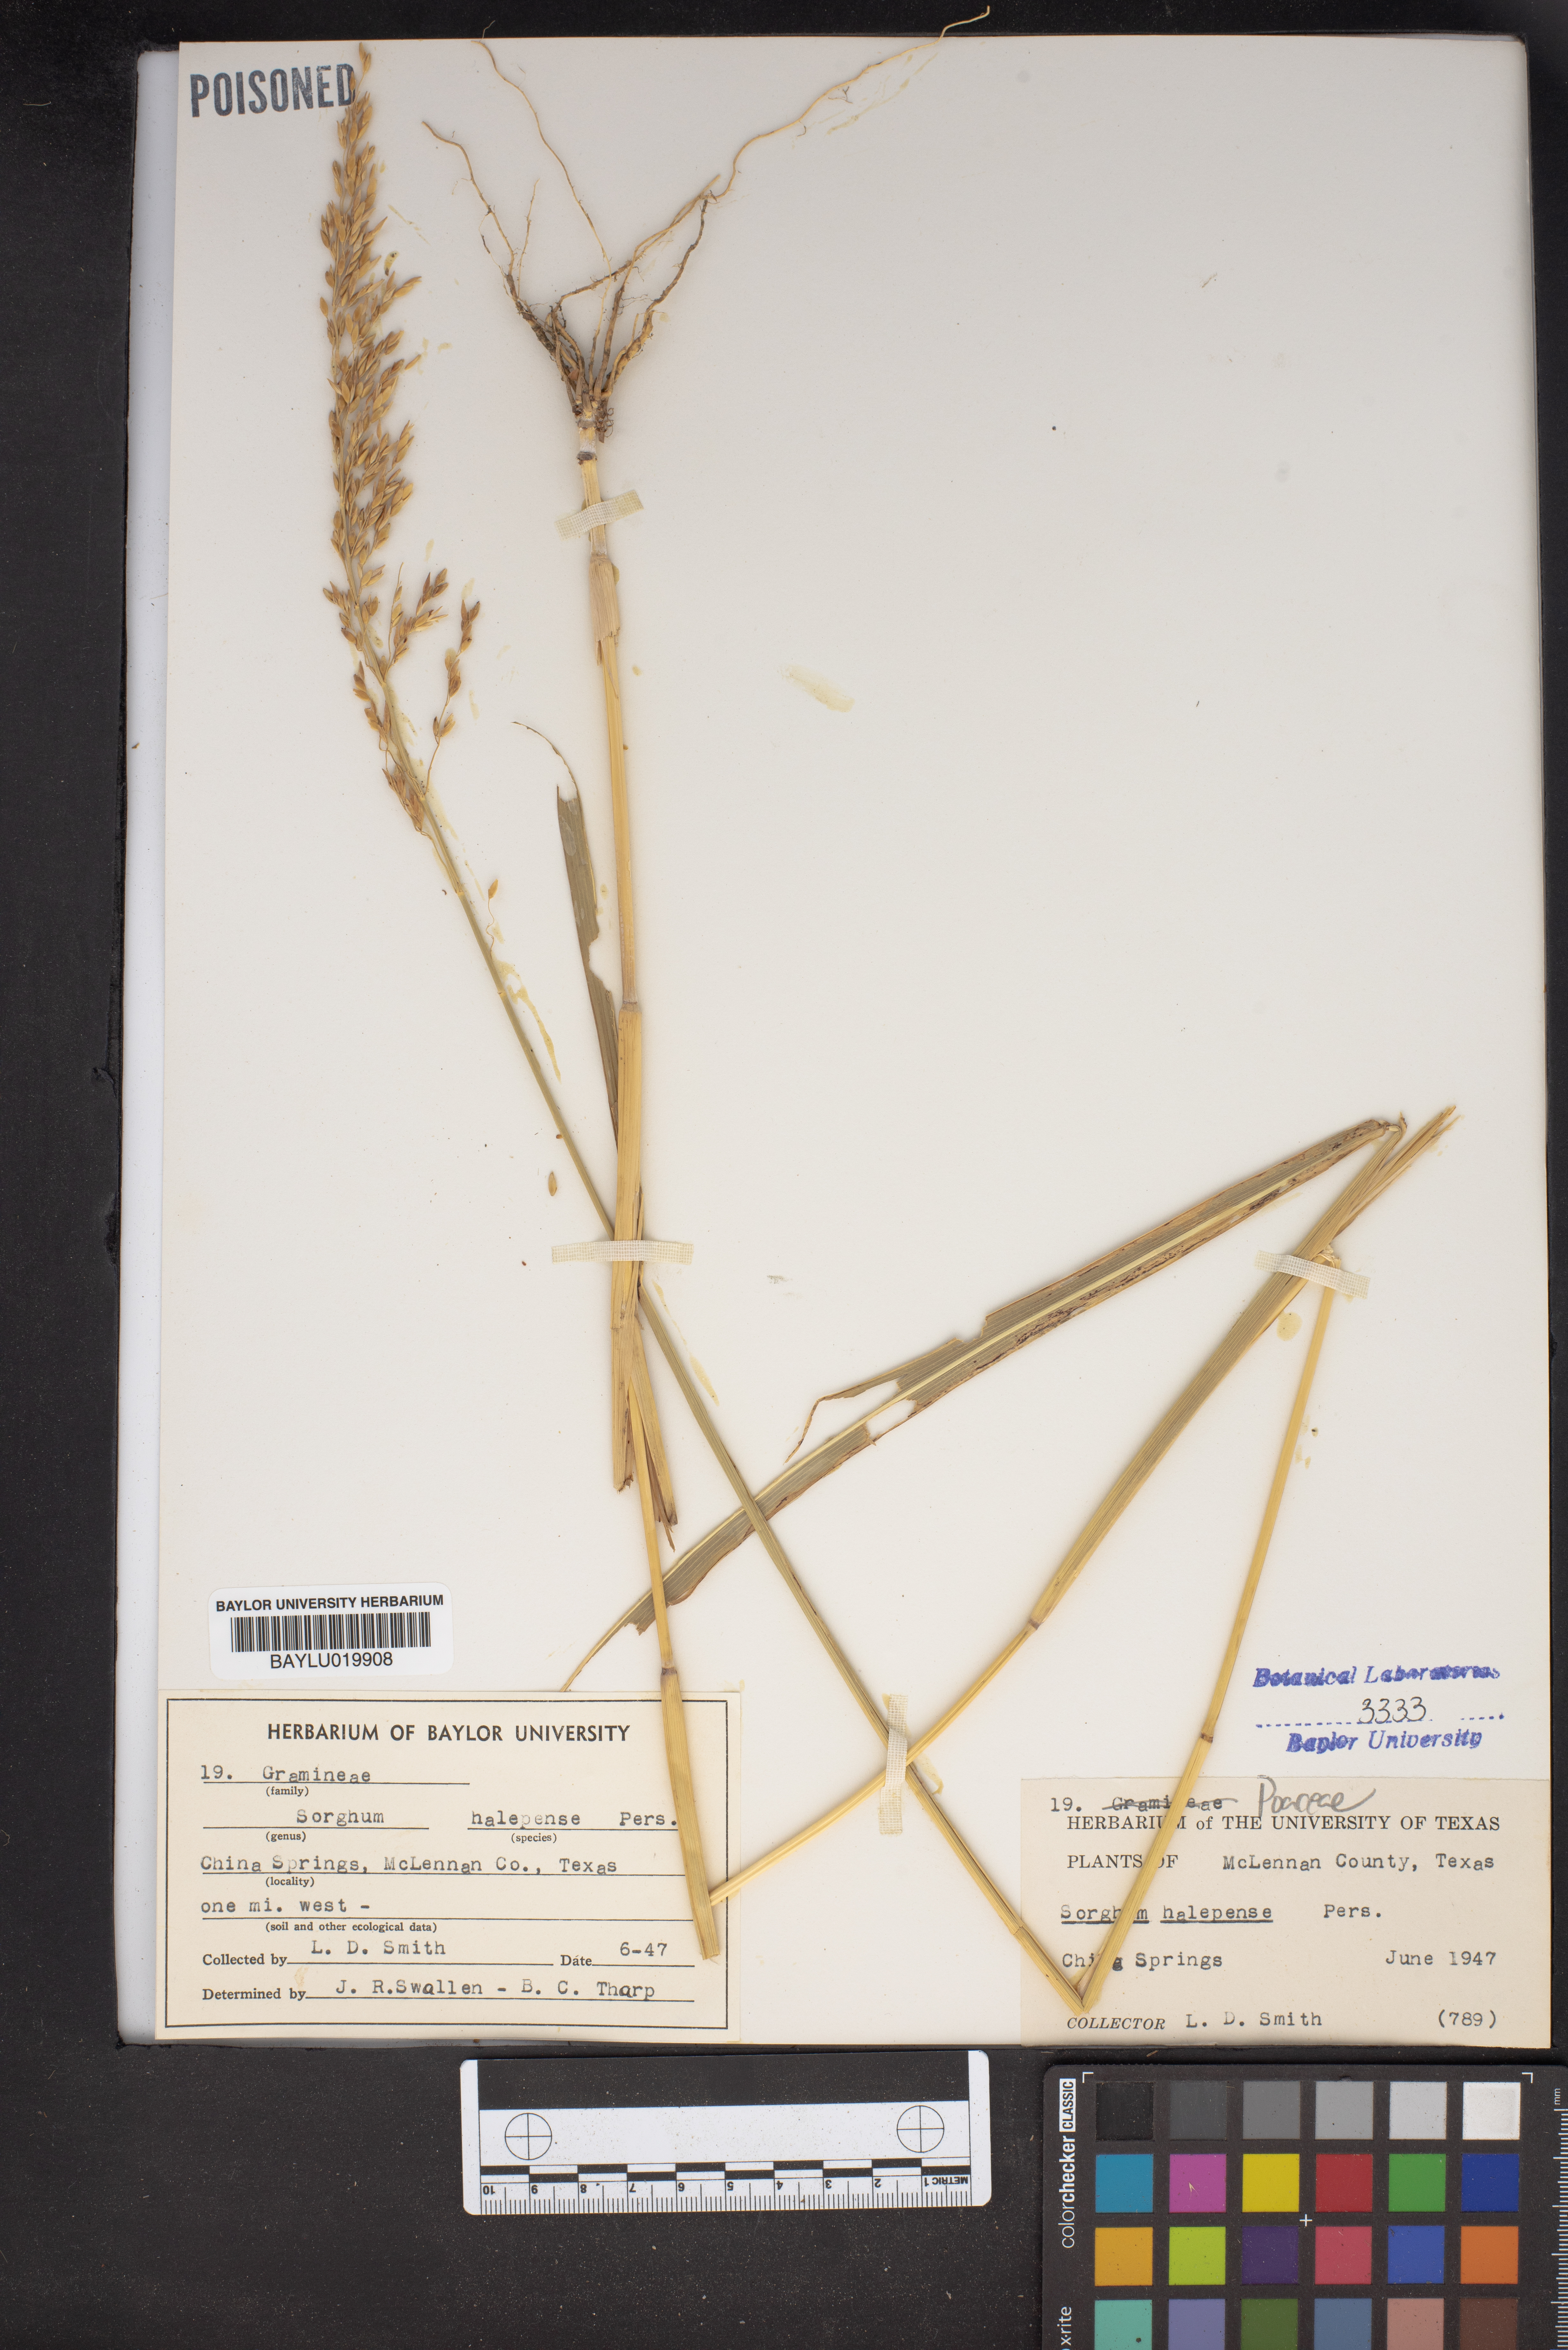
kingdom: Plantae
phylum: Tracheophyta
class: Liliopsida
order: Poales
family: Poaceae
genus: Sorghum
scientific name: Sorghum halepense
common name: Johnson-grass
